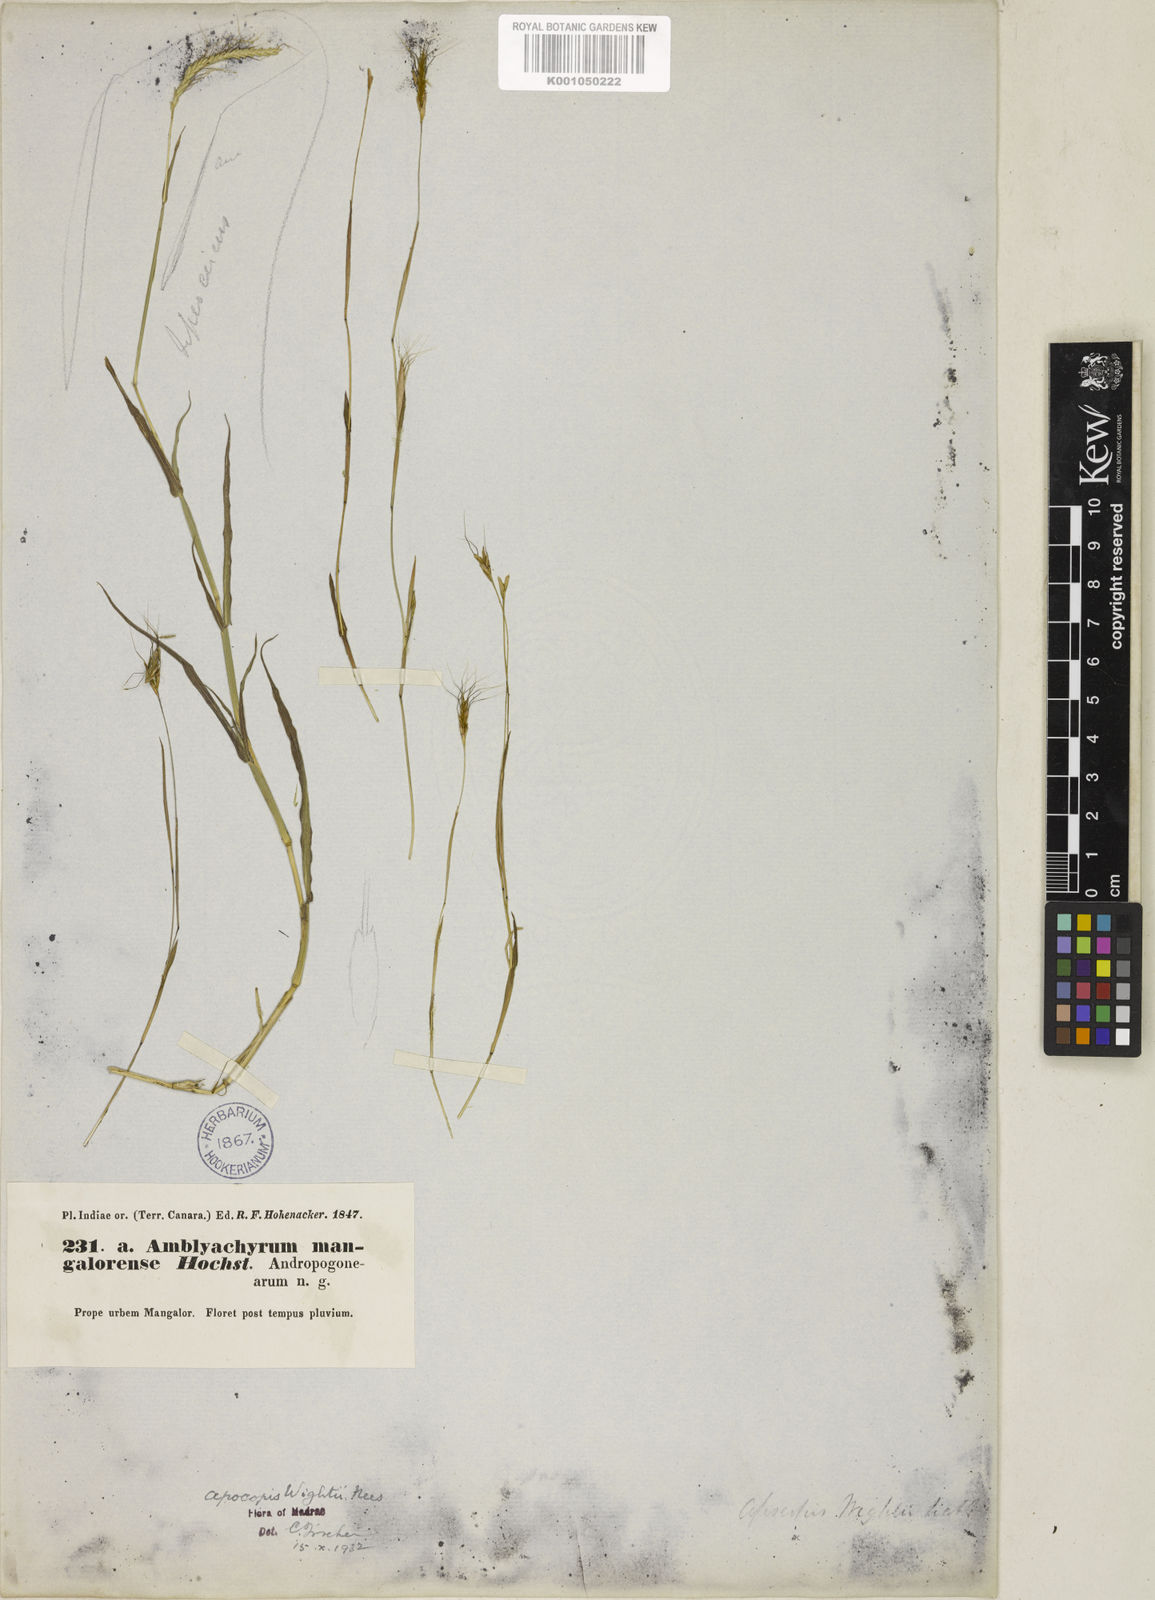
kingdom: Plantae
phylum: Tracheophyta
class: Liliopsida
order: Poales
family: Poaceae
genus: Apocopis
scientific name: Apocopis mangalorensis
